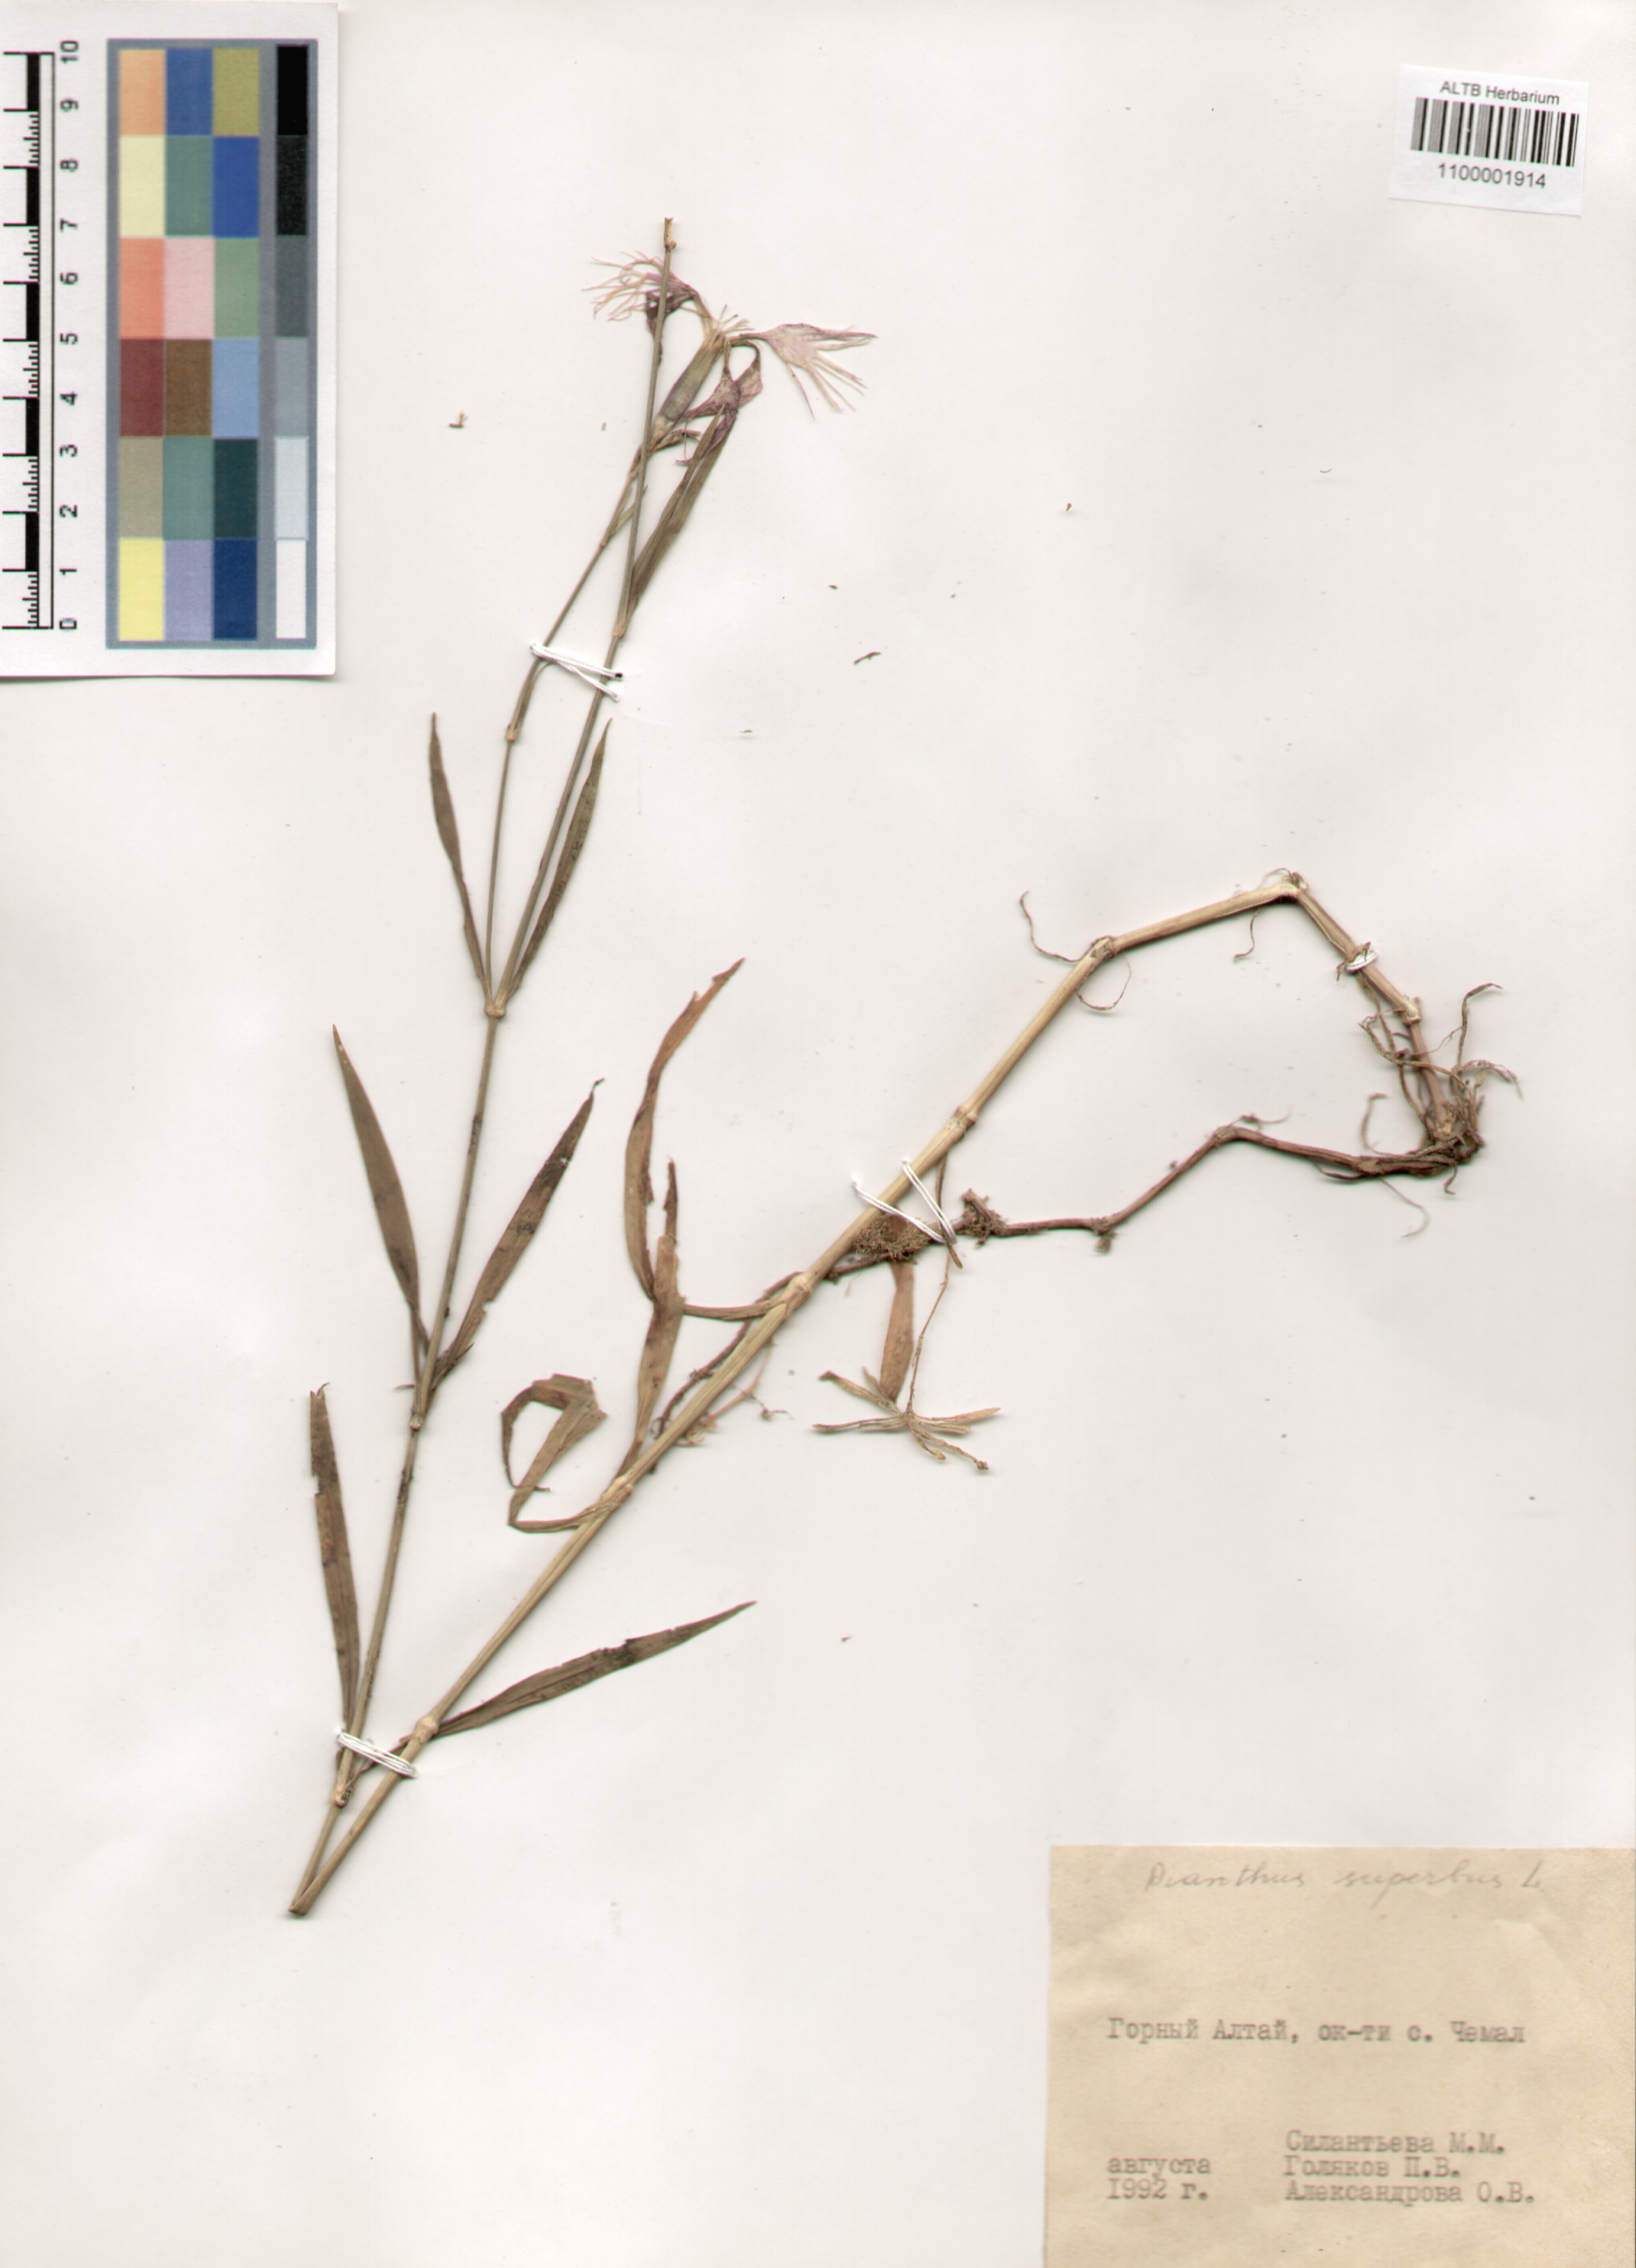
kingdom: Plantae
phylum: Tracheophyta
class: Magnoliopsida
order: Caryophyllales
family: Caryophyllaceae
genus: Dianthus
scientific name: Dianthus superbus
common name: Fringed pink
